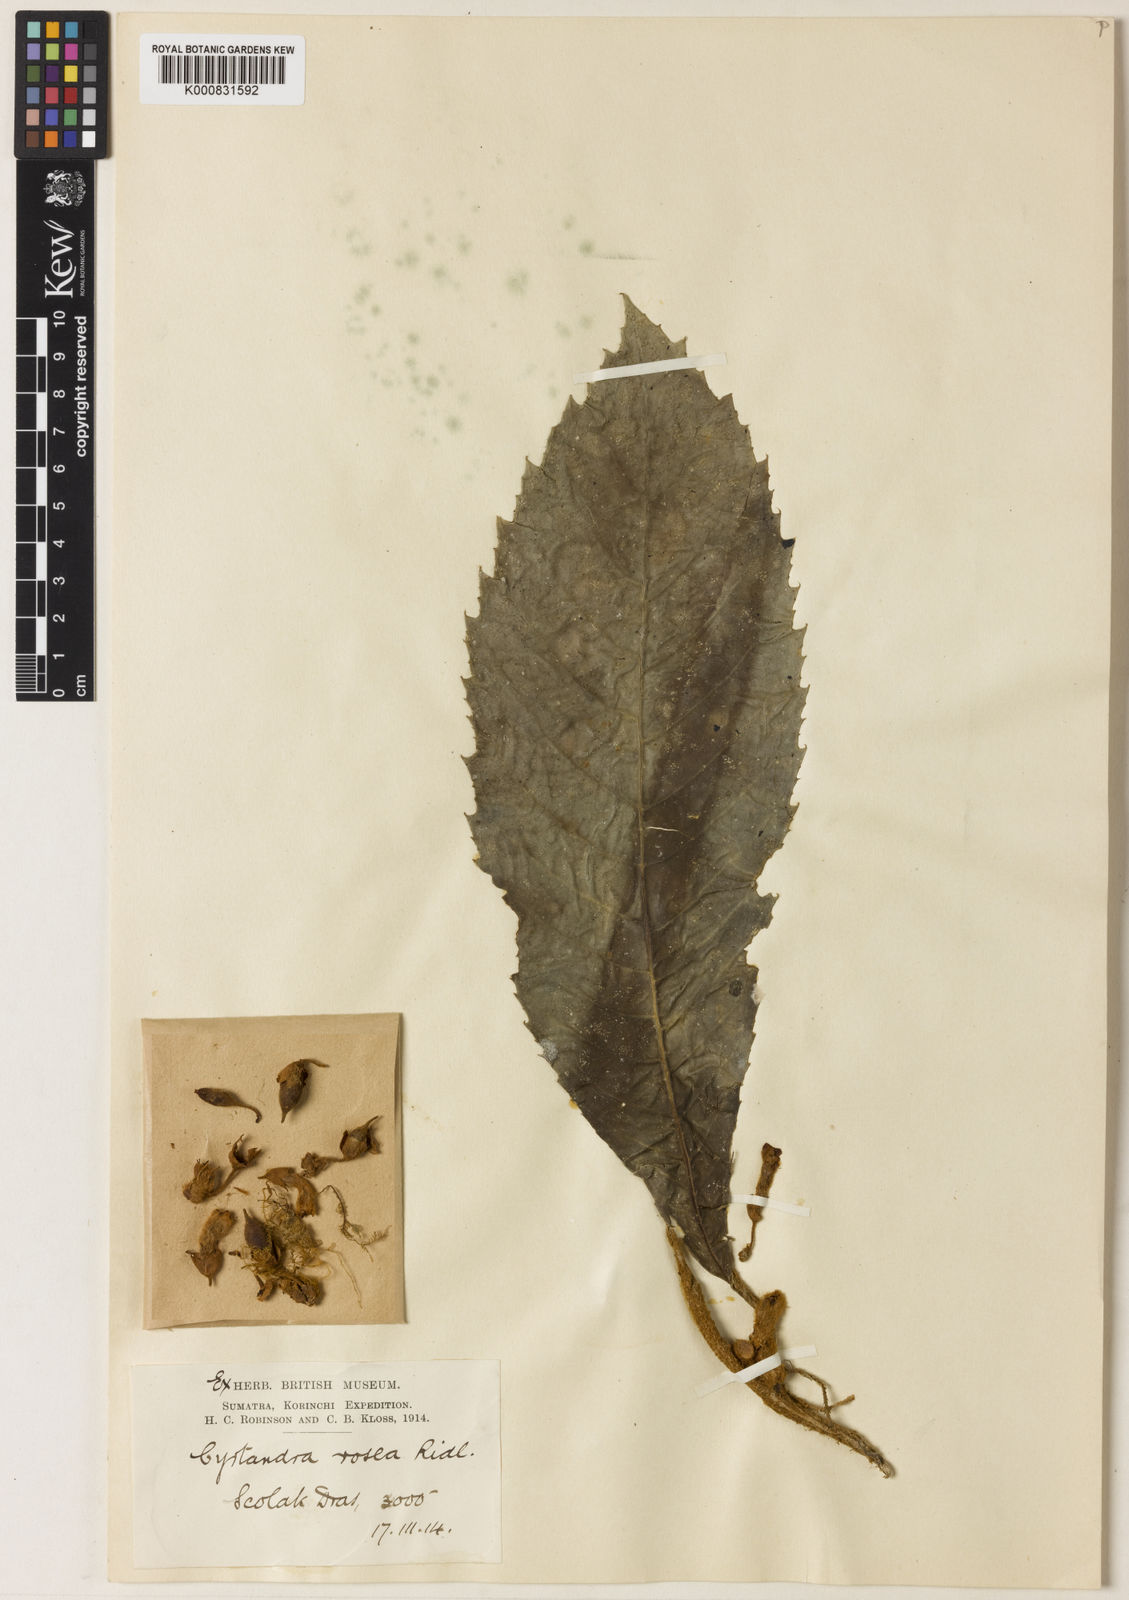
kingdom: Plantae
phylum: Tracheophyta
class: Magnoliopsida
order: Lamiales
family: Gesneriaceae
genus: Cyrtandra
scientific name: Cyrtandra rosea
